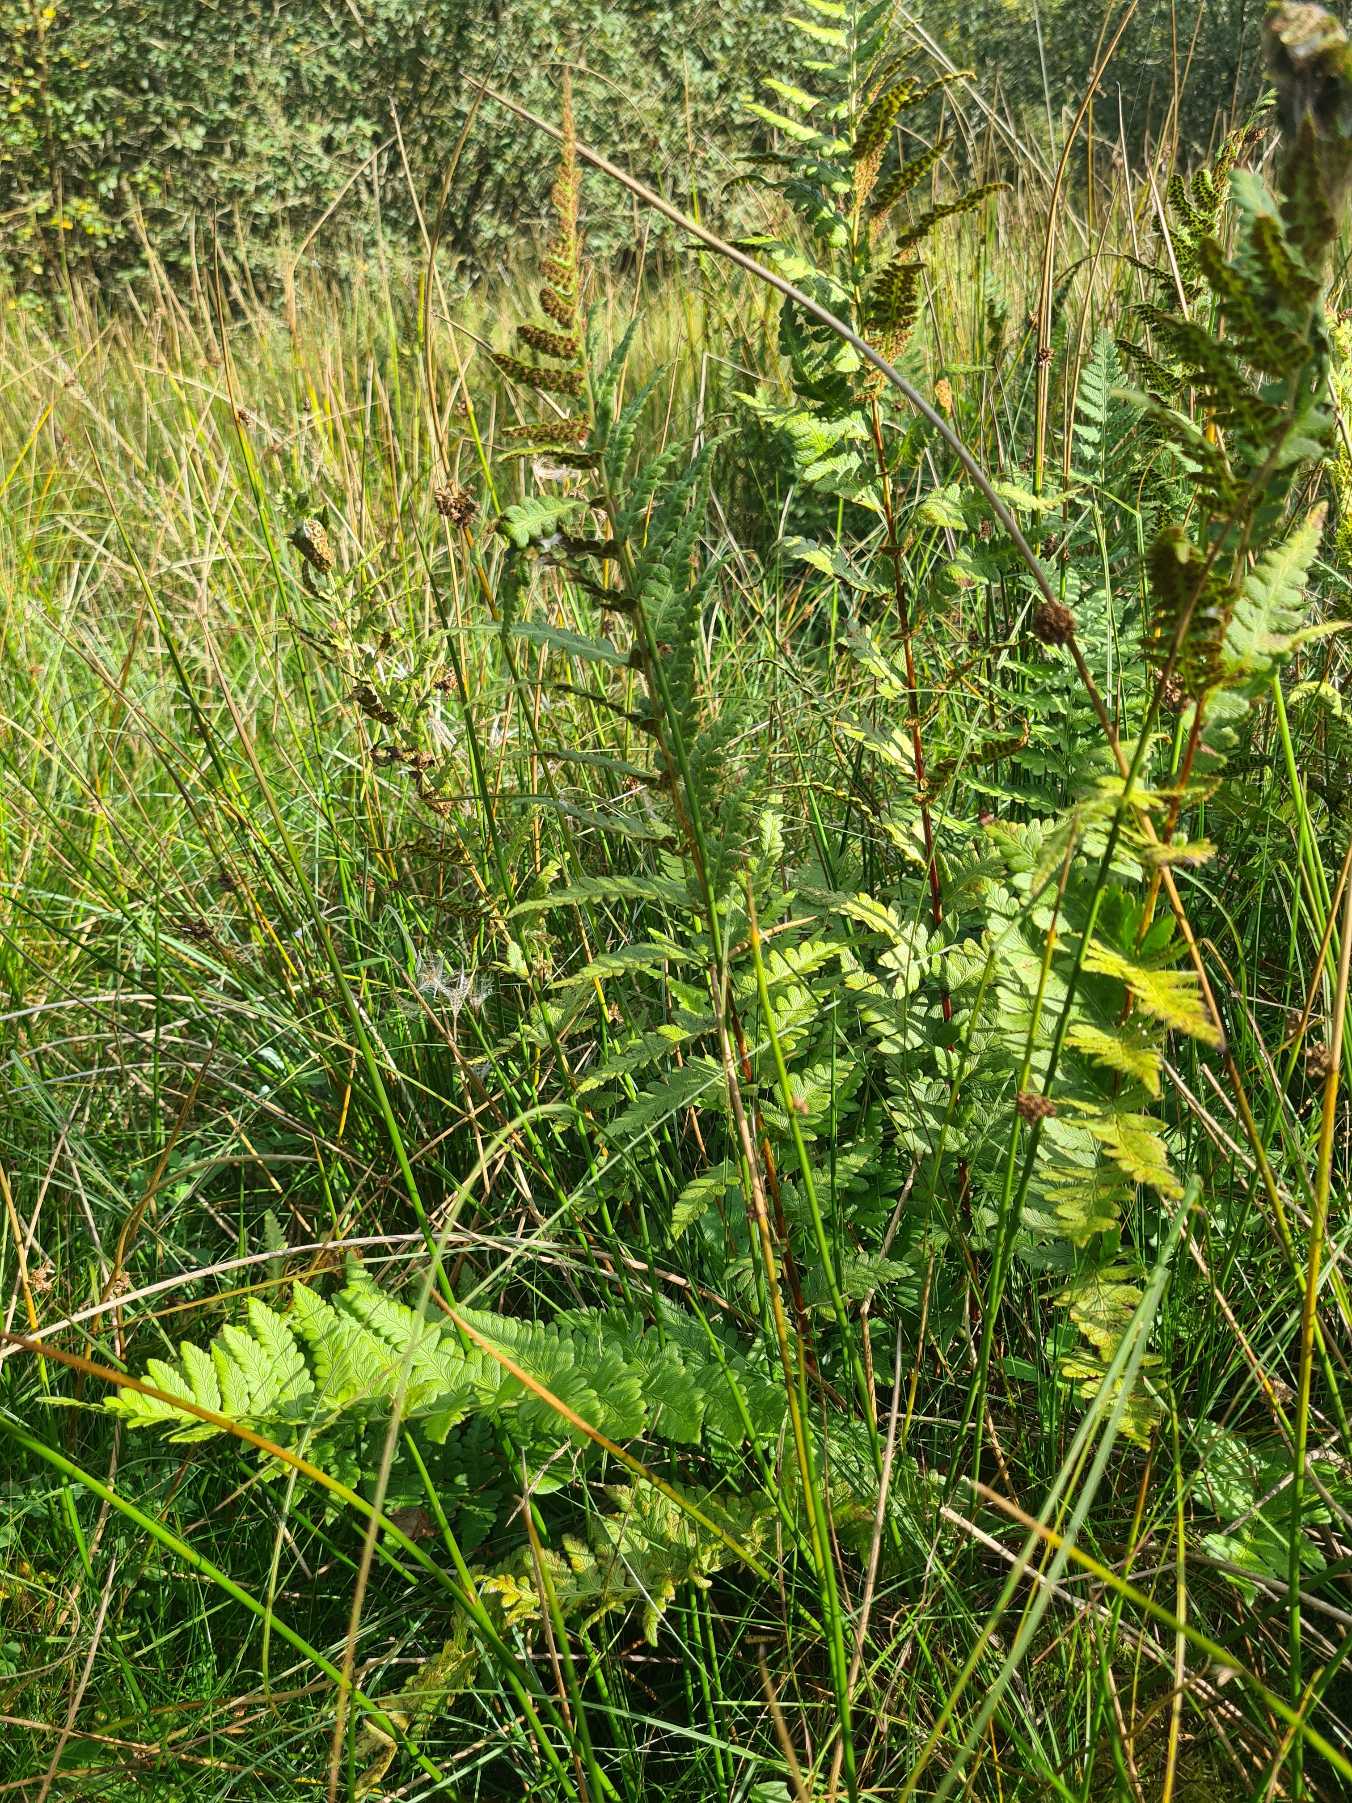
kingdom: Plantae
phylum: Tracheophyta
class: Polypodiopsida
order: Polypodiales
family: Dryopteridaceae
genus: Dryopteris
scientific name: Dryopteris cristata
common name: Butfinnet mangeløv
